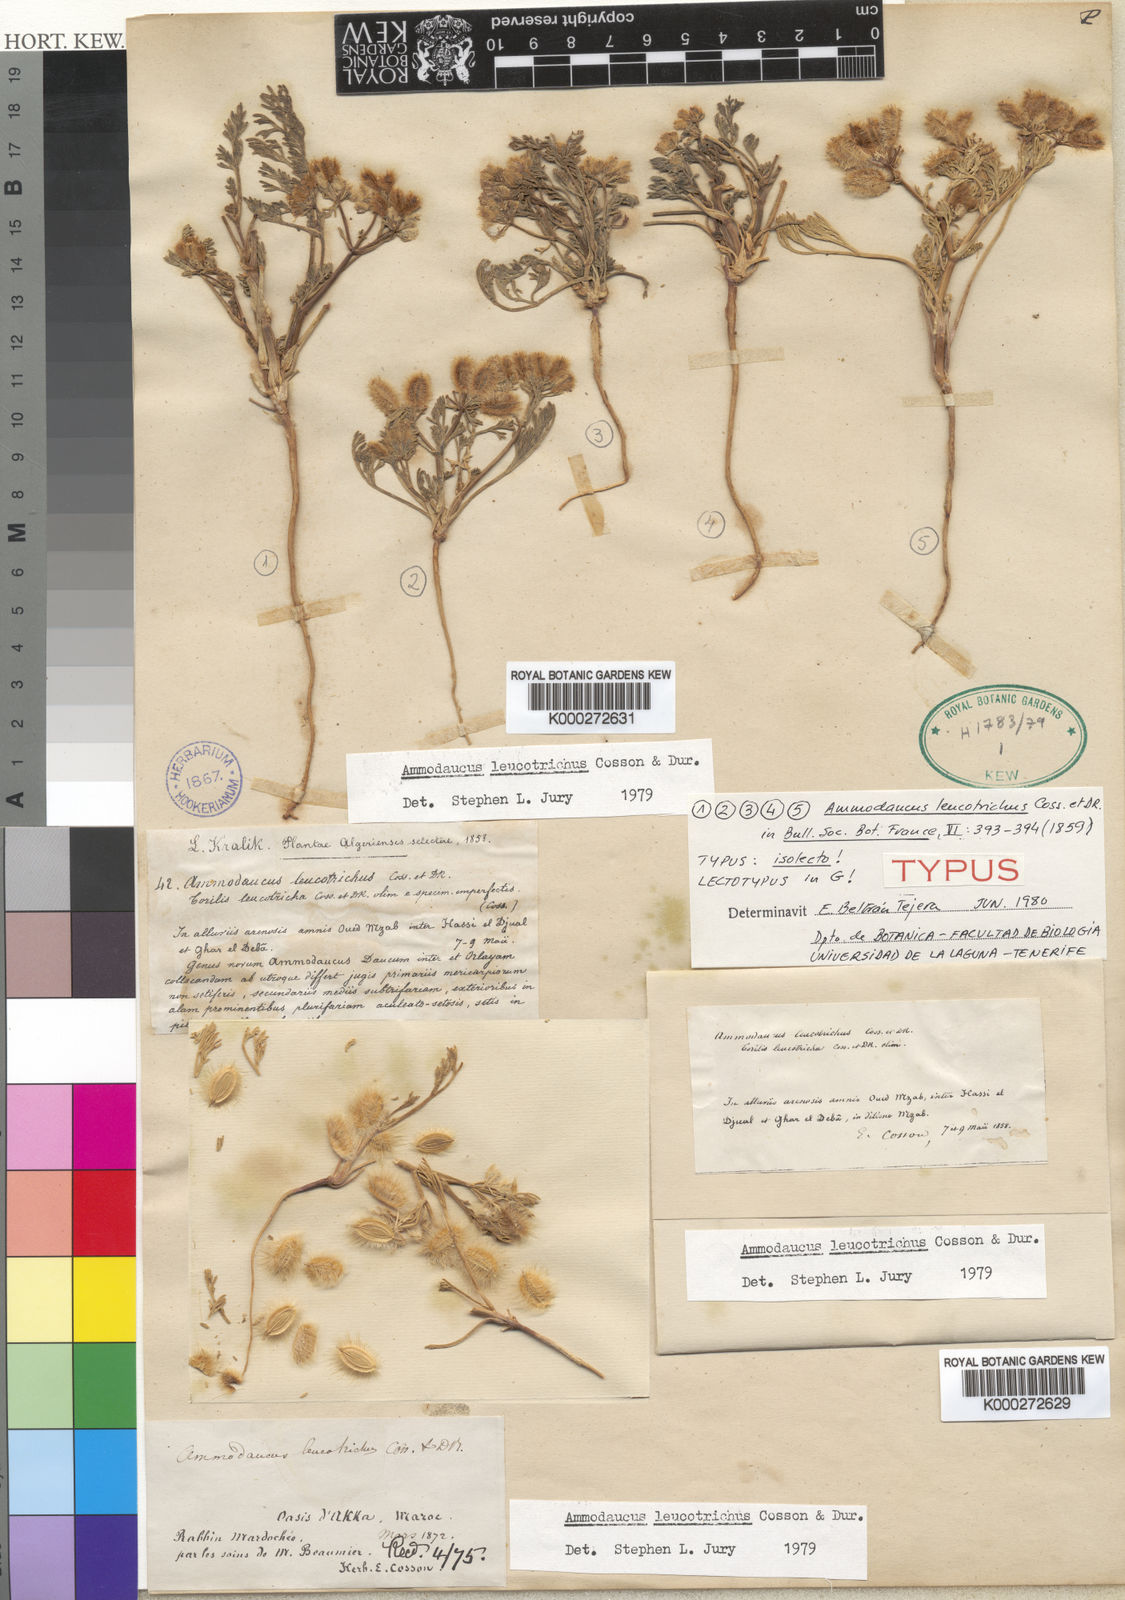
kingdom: Plantae
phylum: Tracheophyta
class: Magnoliopsida
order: Apiales
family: Apiaceae
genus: Ammodaucus
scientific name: Ammodaucus leucotrichus
